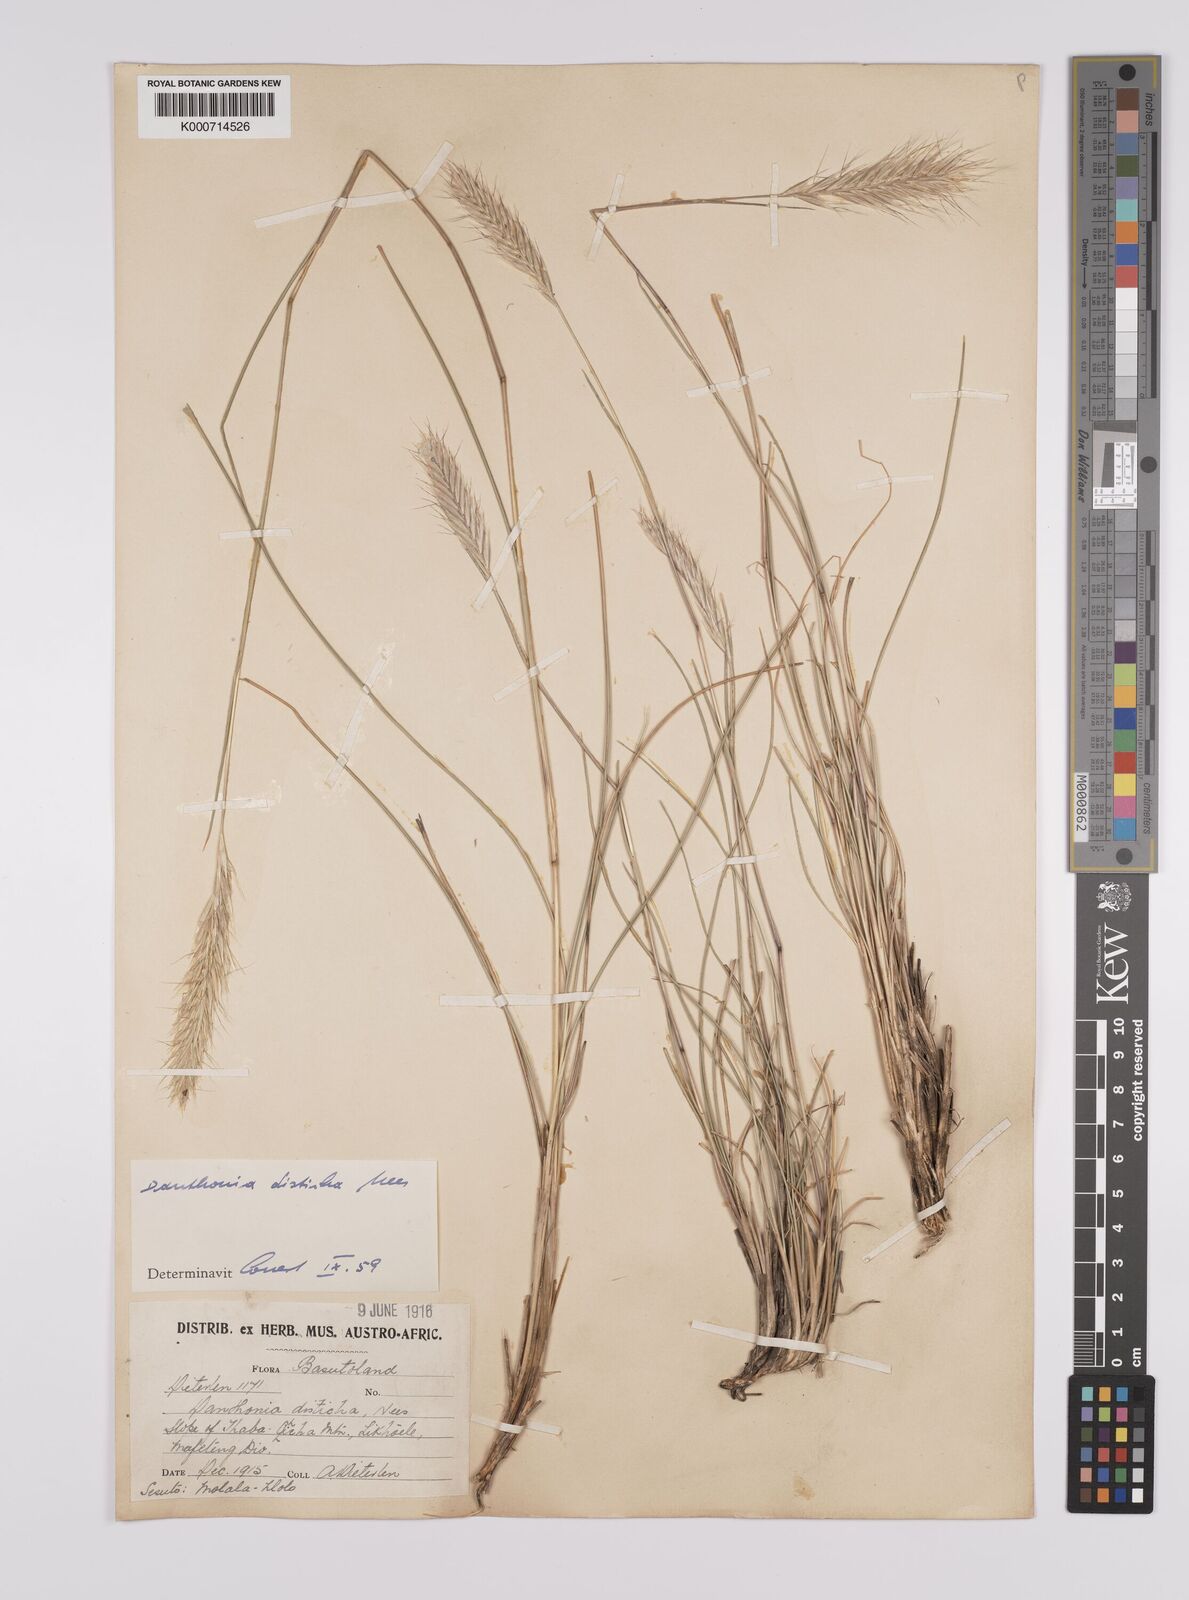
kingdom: Plantae
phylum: Tracheophyta
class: Liliopsida
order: Poales
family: Poaceae
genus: Tenaxia
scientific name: Tenaxia disticha
